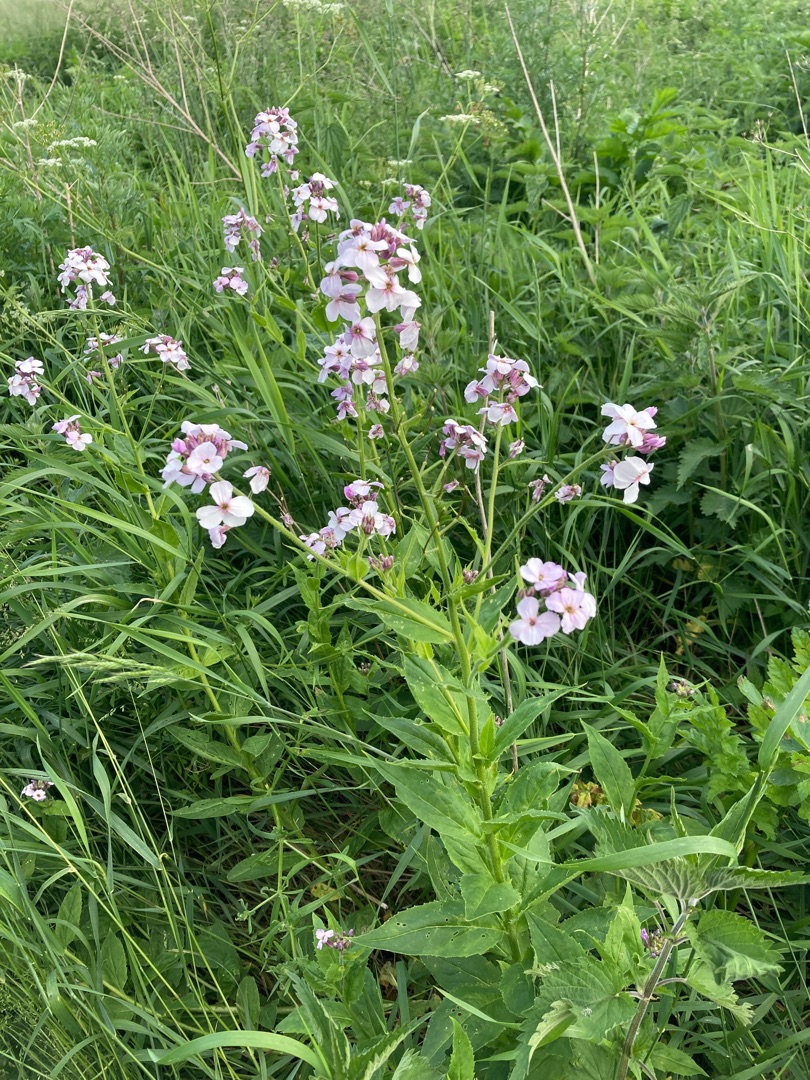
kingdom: Plantae
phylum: Tracheophyta
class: Magnoliopsida
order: Brassicales
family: Brassicaceae
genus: Hesperis
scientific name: Hesperis matronalis
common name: Aftenstjerne
